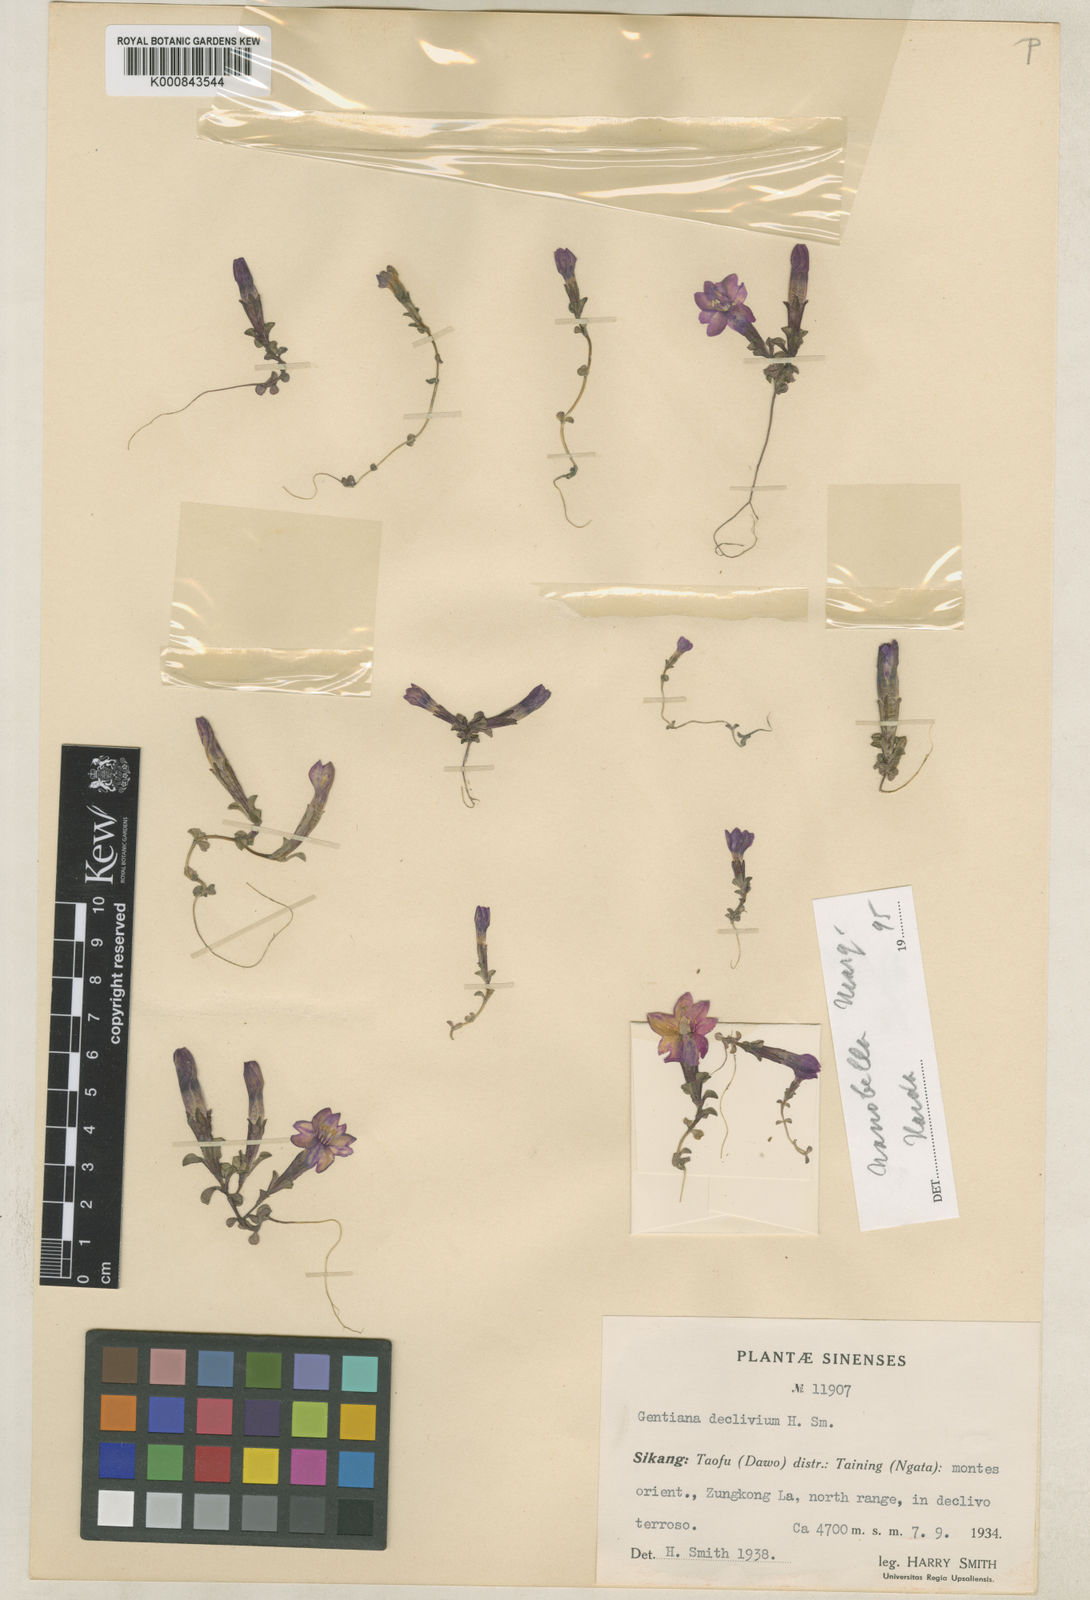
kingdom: Plantae
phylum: Tracheophyta
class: Magnoliopsida
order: Gentianales
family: Gentianaceae
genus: Gentiana
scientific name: Gentiana nanobella
